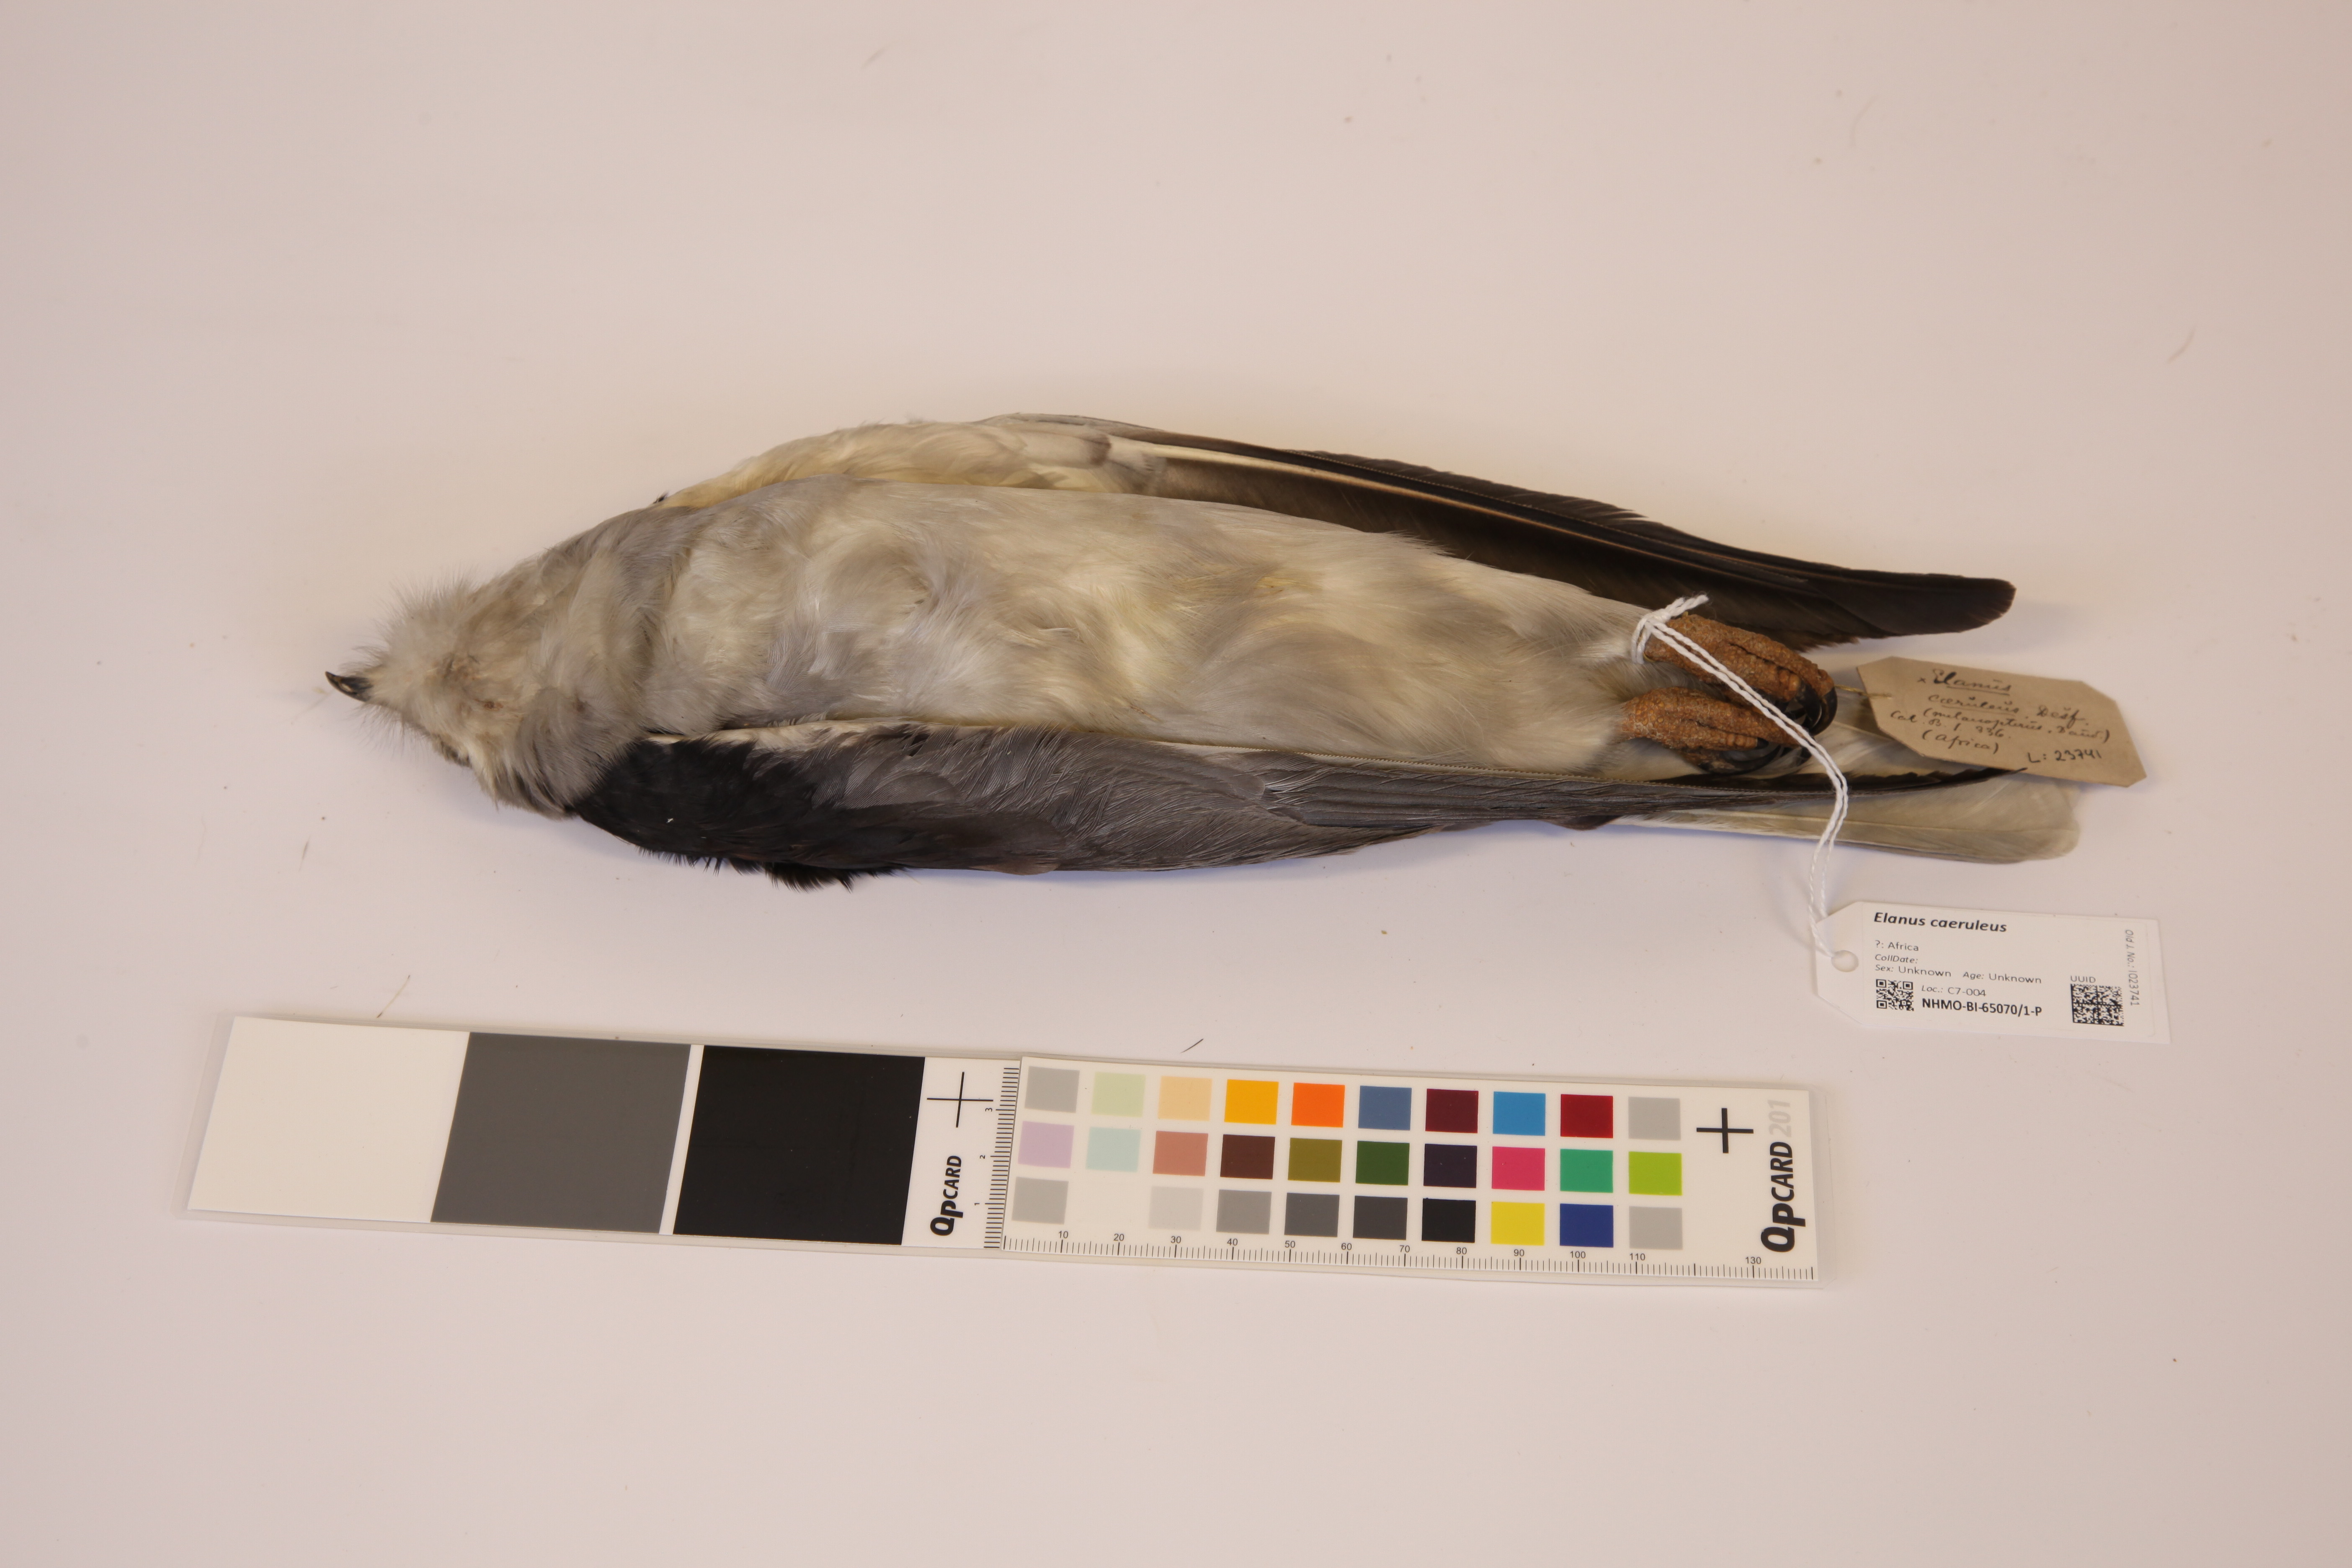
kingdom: Animalia
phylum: Chordata
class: Aves
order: Accipitriformes
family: Accipitridae
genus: Elanus
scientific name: Elanus caeruleus
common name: Black-winged kite
